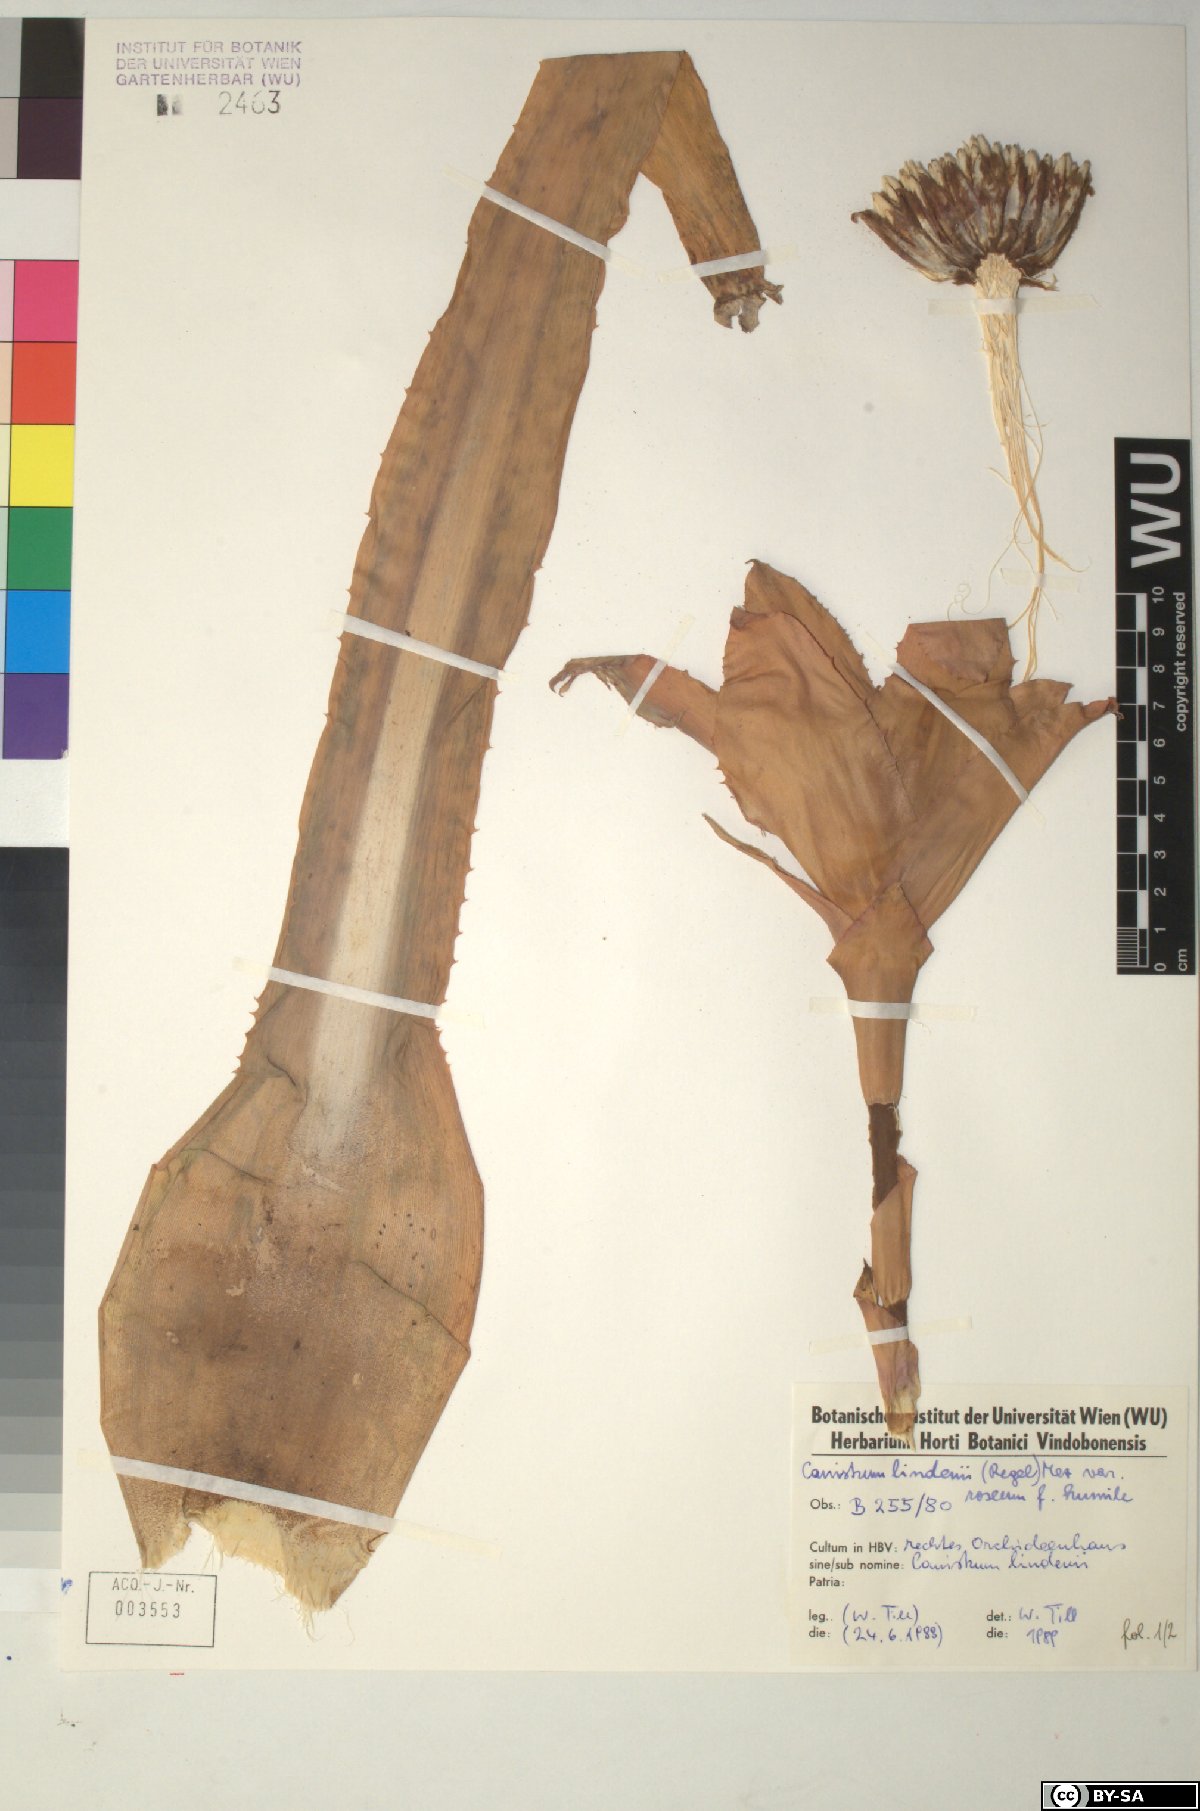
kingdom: Plantae
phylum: Tracheophyta
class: Liliopsida
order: Poales
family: Bromeliaceae
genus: Edmundoa
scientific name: Edmundoa lindenii
